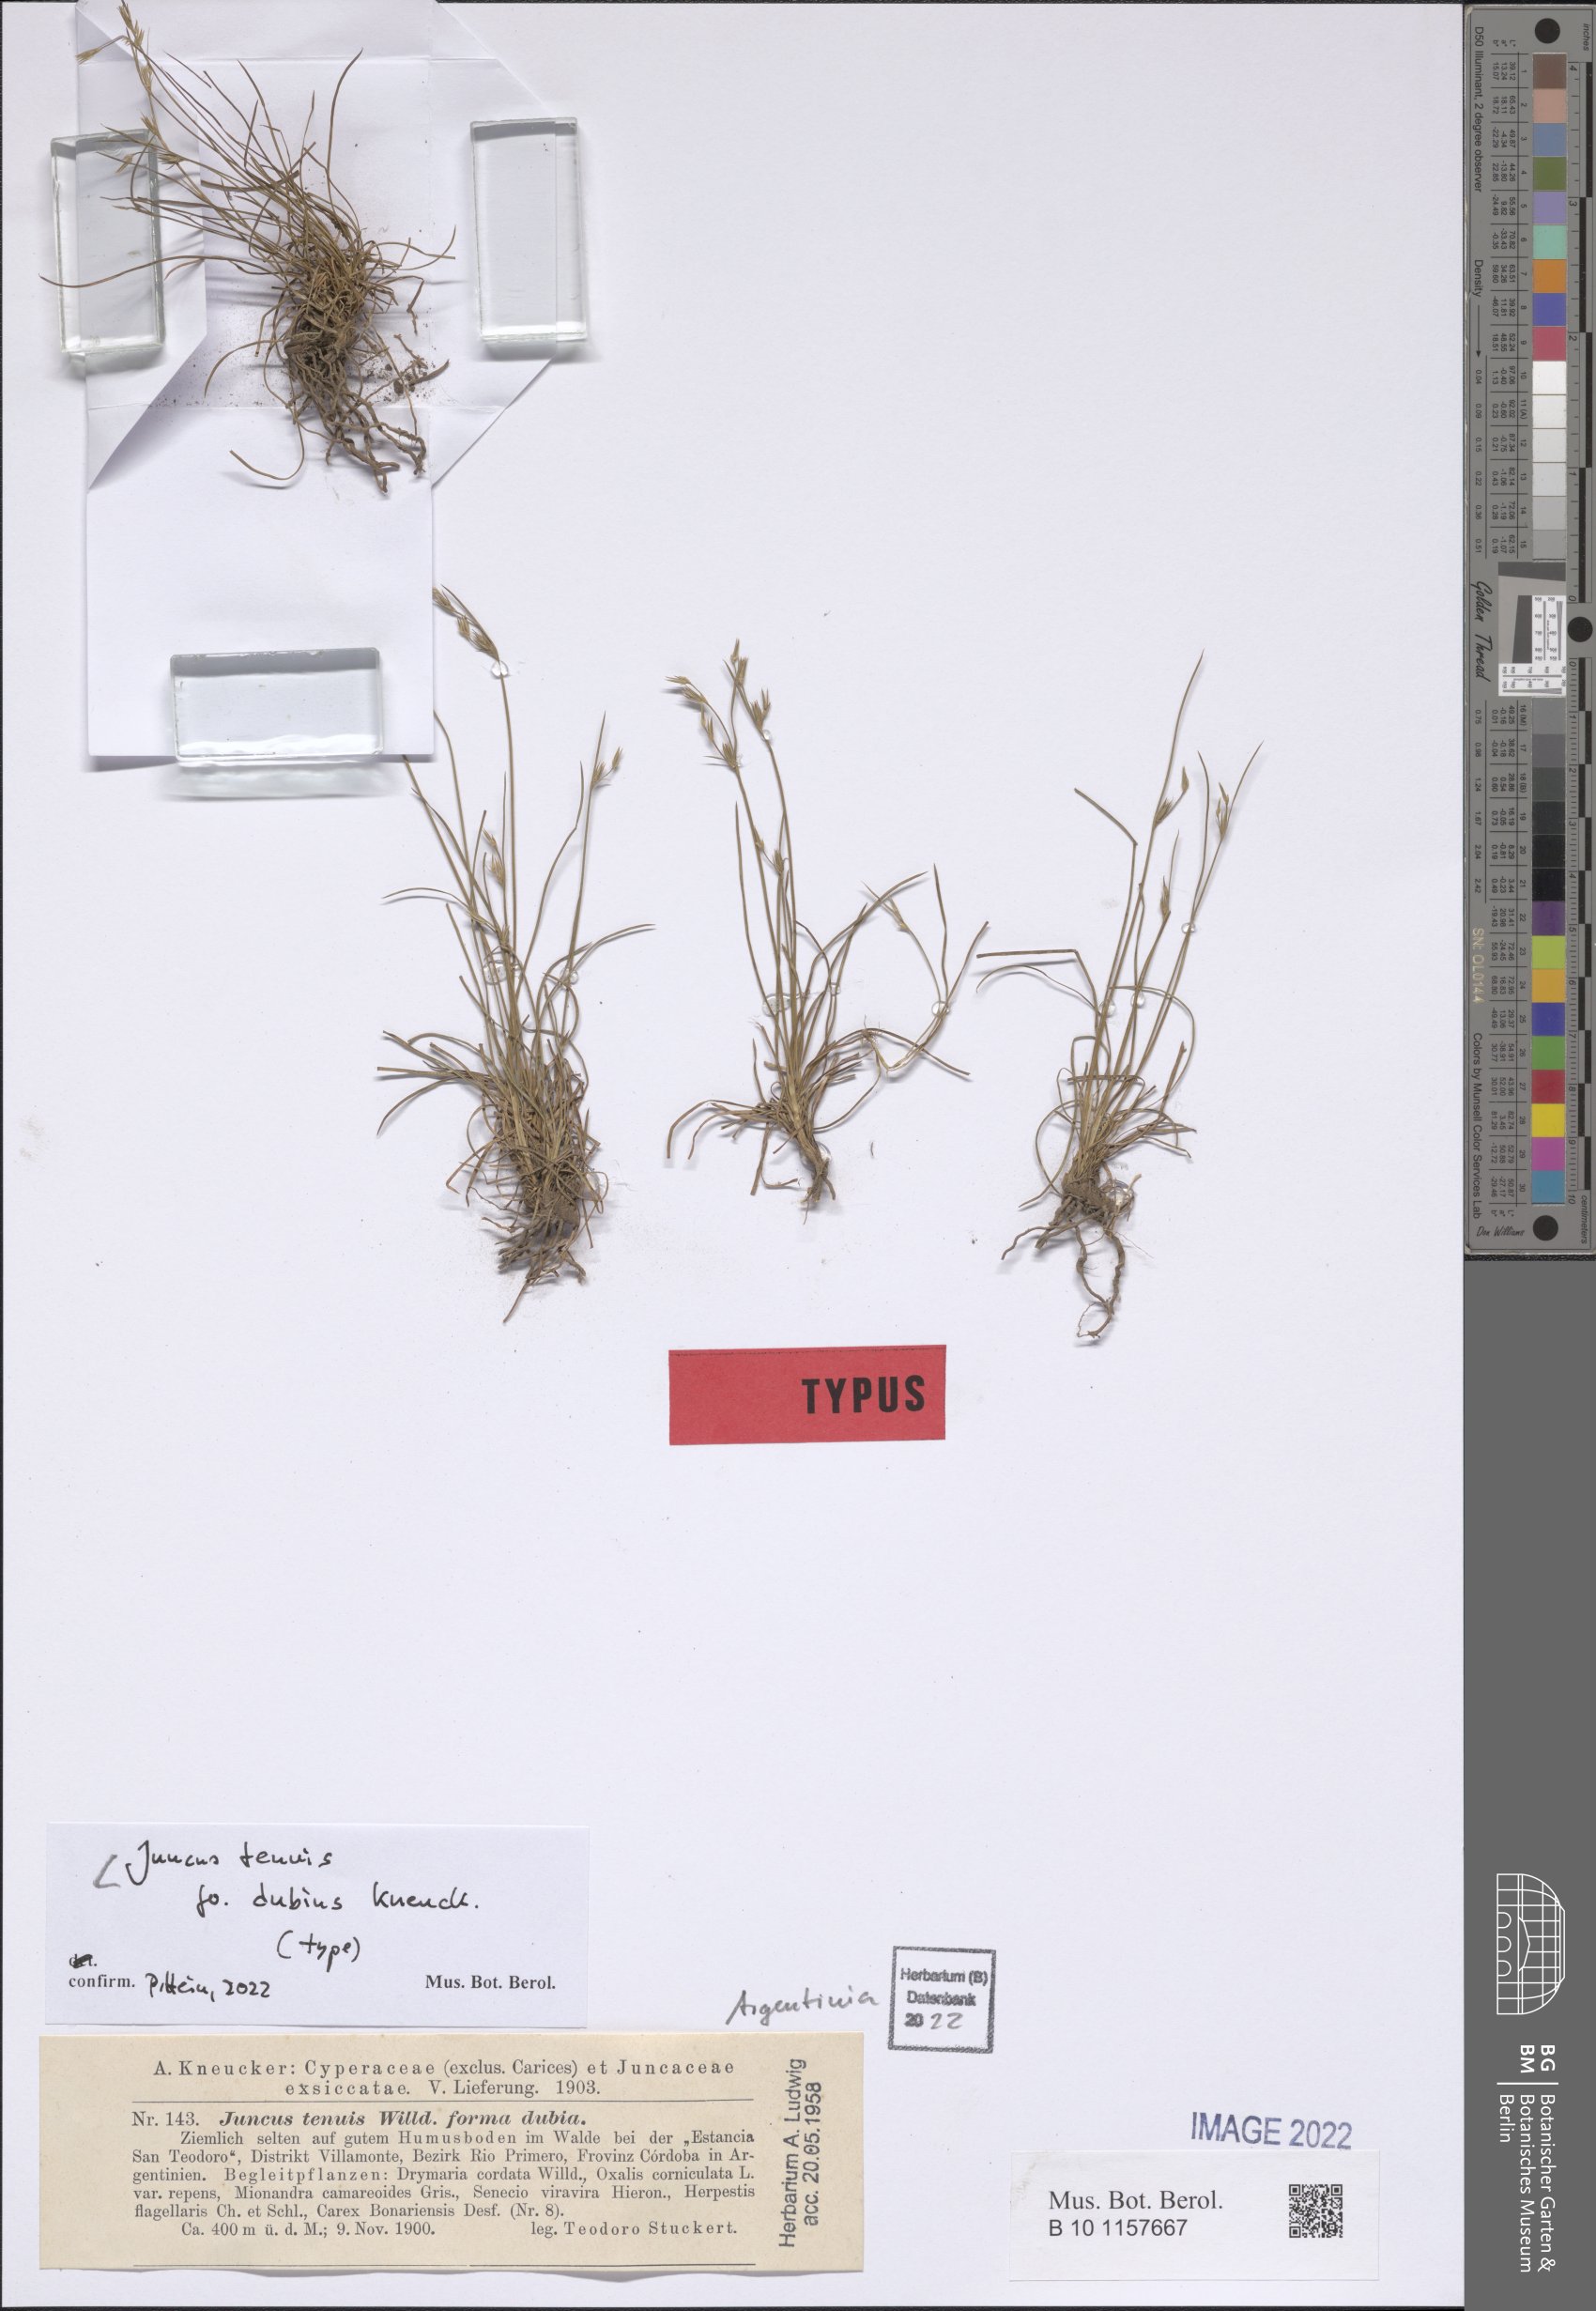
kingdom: Plantae
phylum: Tracheophyta
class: Liliopsida
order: Poales
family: Juncaceae
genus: Juncus
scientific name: Juncus tenuis
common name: Slender rush
